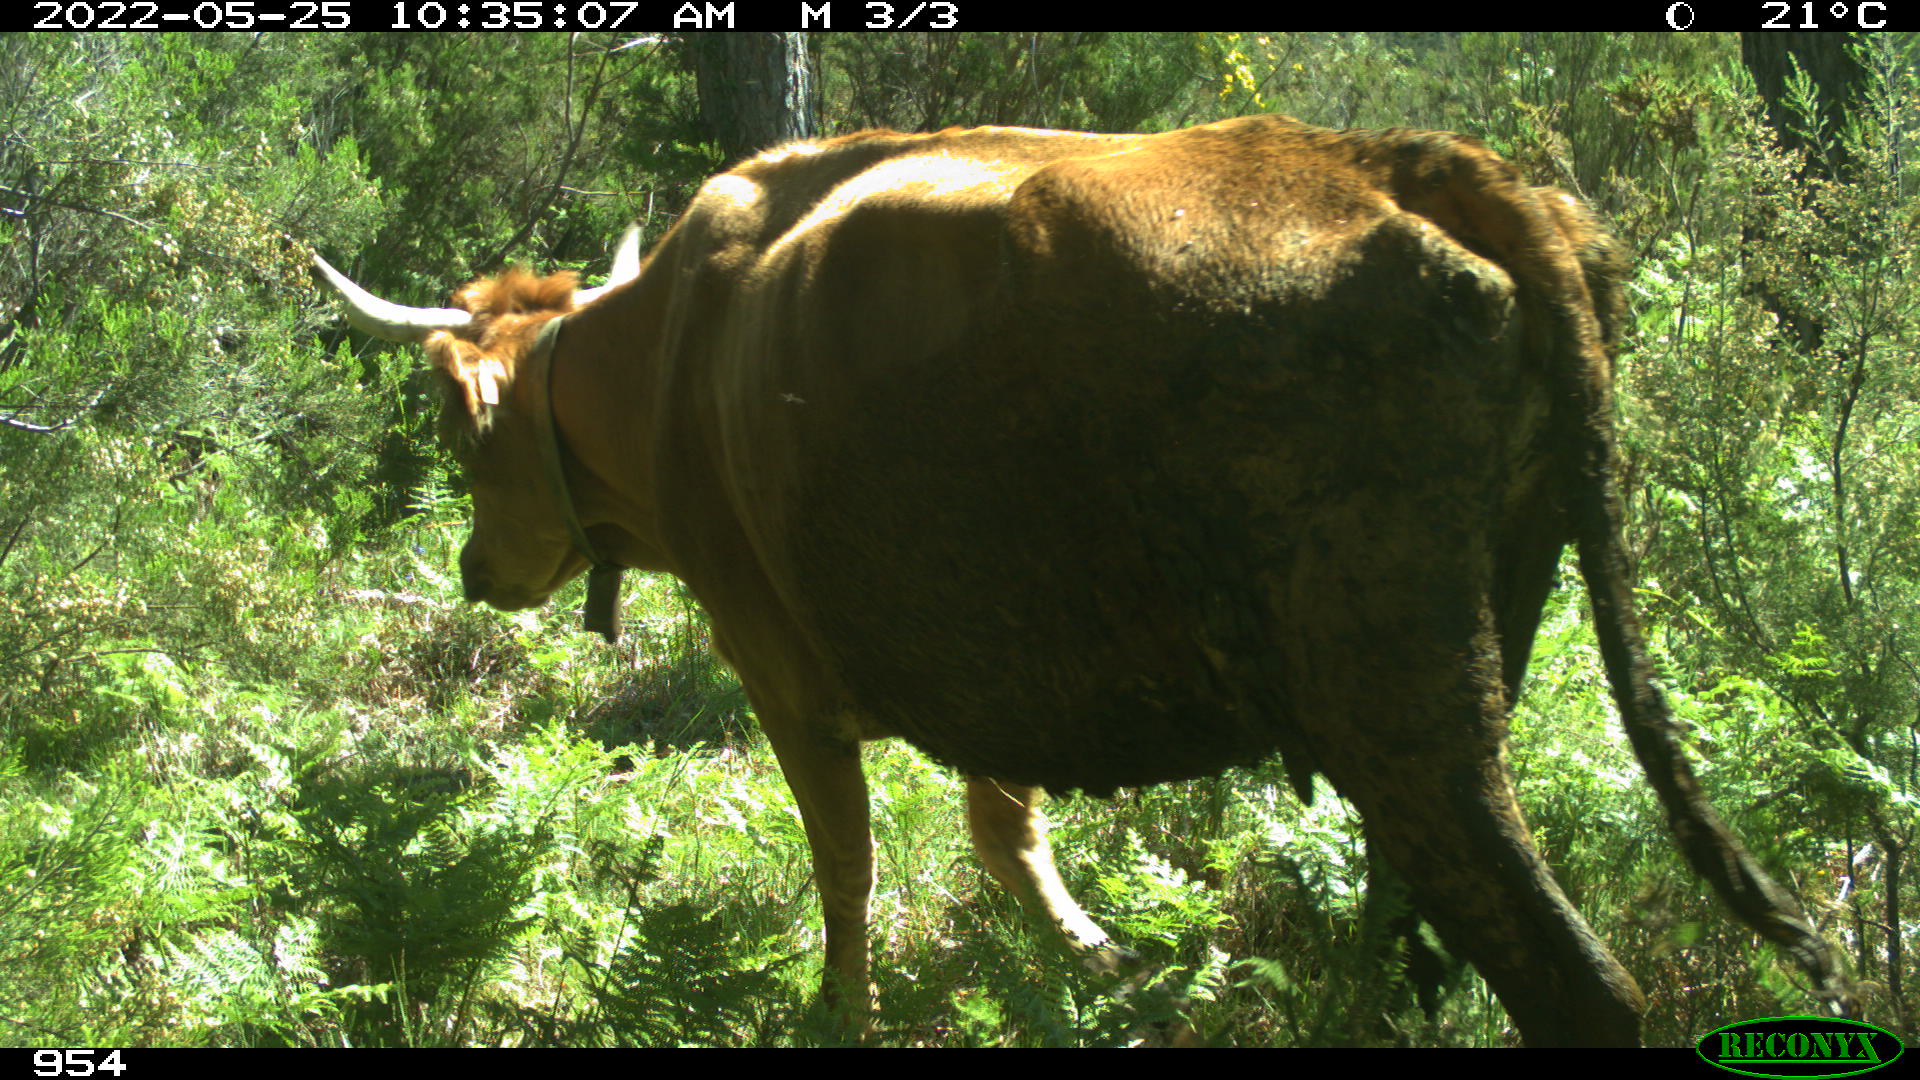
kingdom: Animalia
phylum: Chordata
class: Mammalia
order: Artiodactyla
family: Bovidae
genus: Bos
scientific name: Bos taurus
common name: Domesticated cattle
